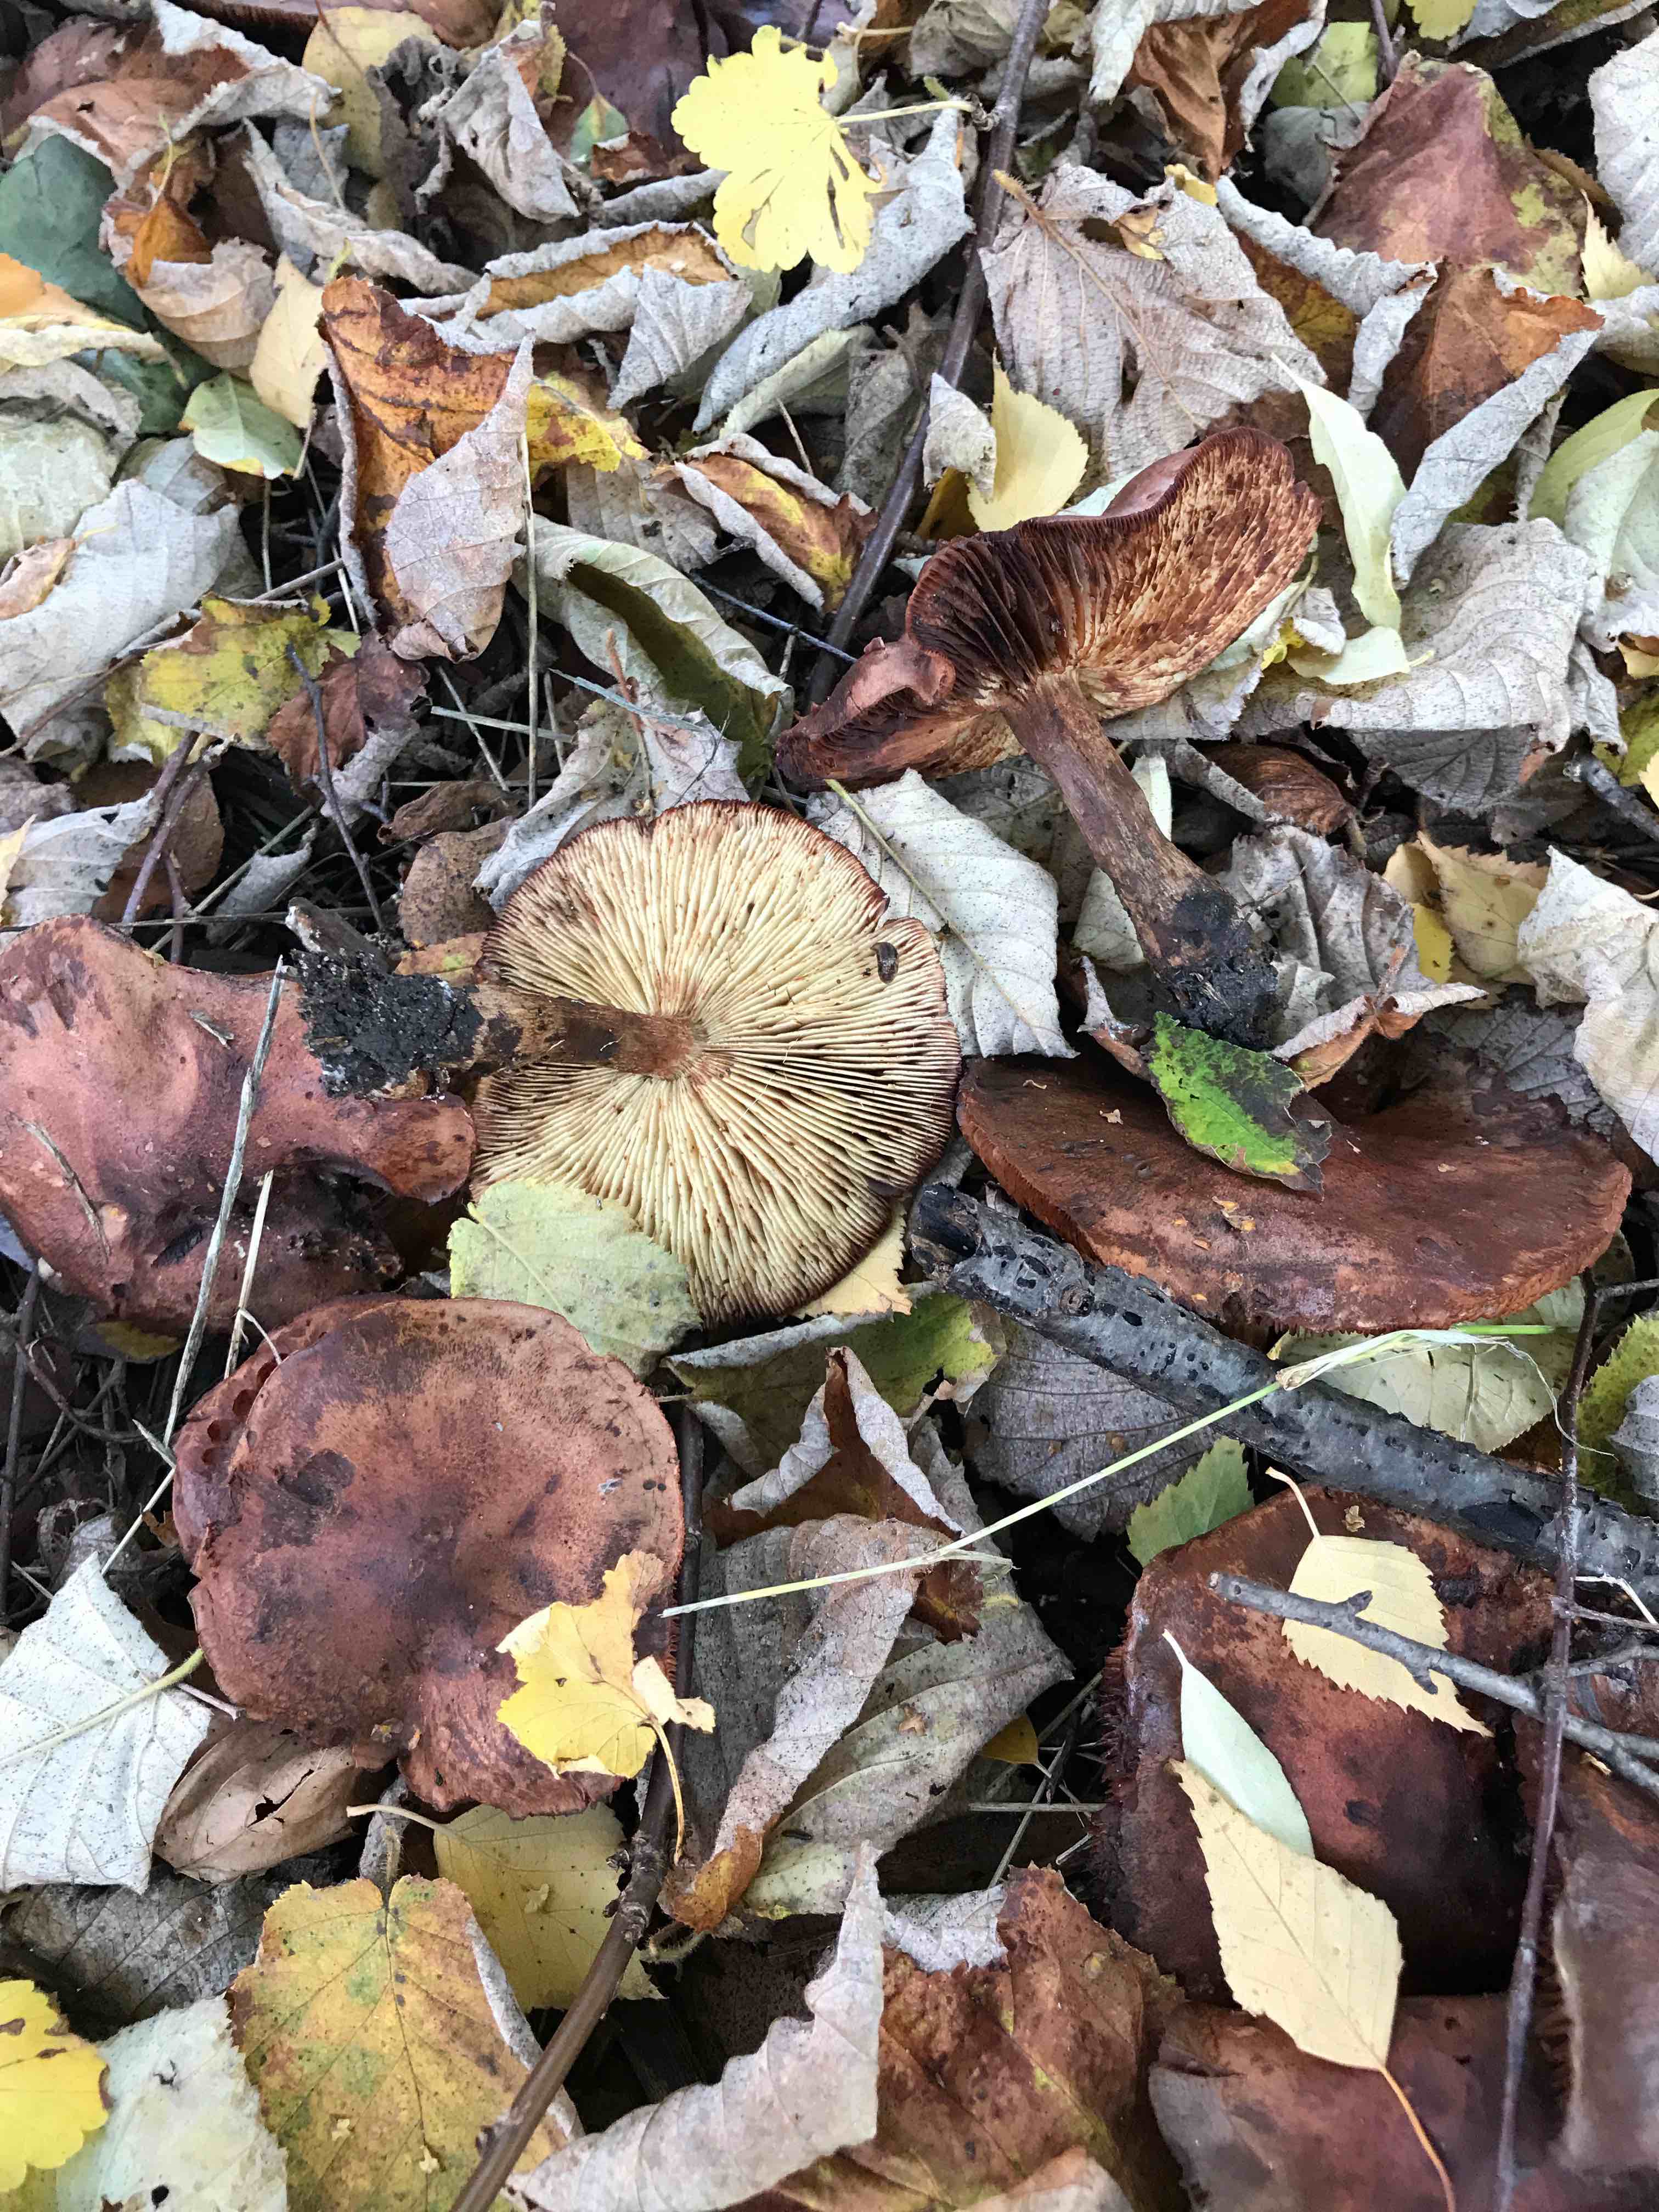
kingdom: Fungi
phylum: Basidiomycota
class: Agaricomycetes
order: Agaricales
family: Tricholomataceae
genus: Tricholoma
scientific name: Tricholoma fulvum
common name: birke-ridderhat
